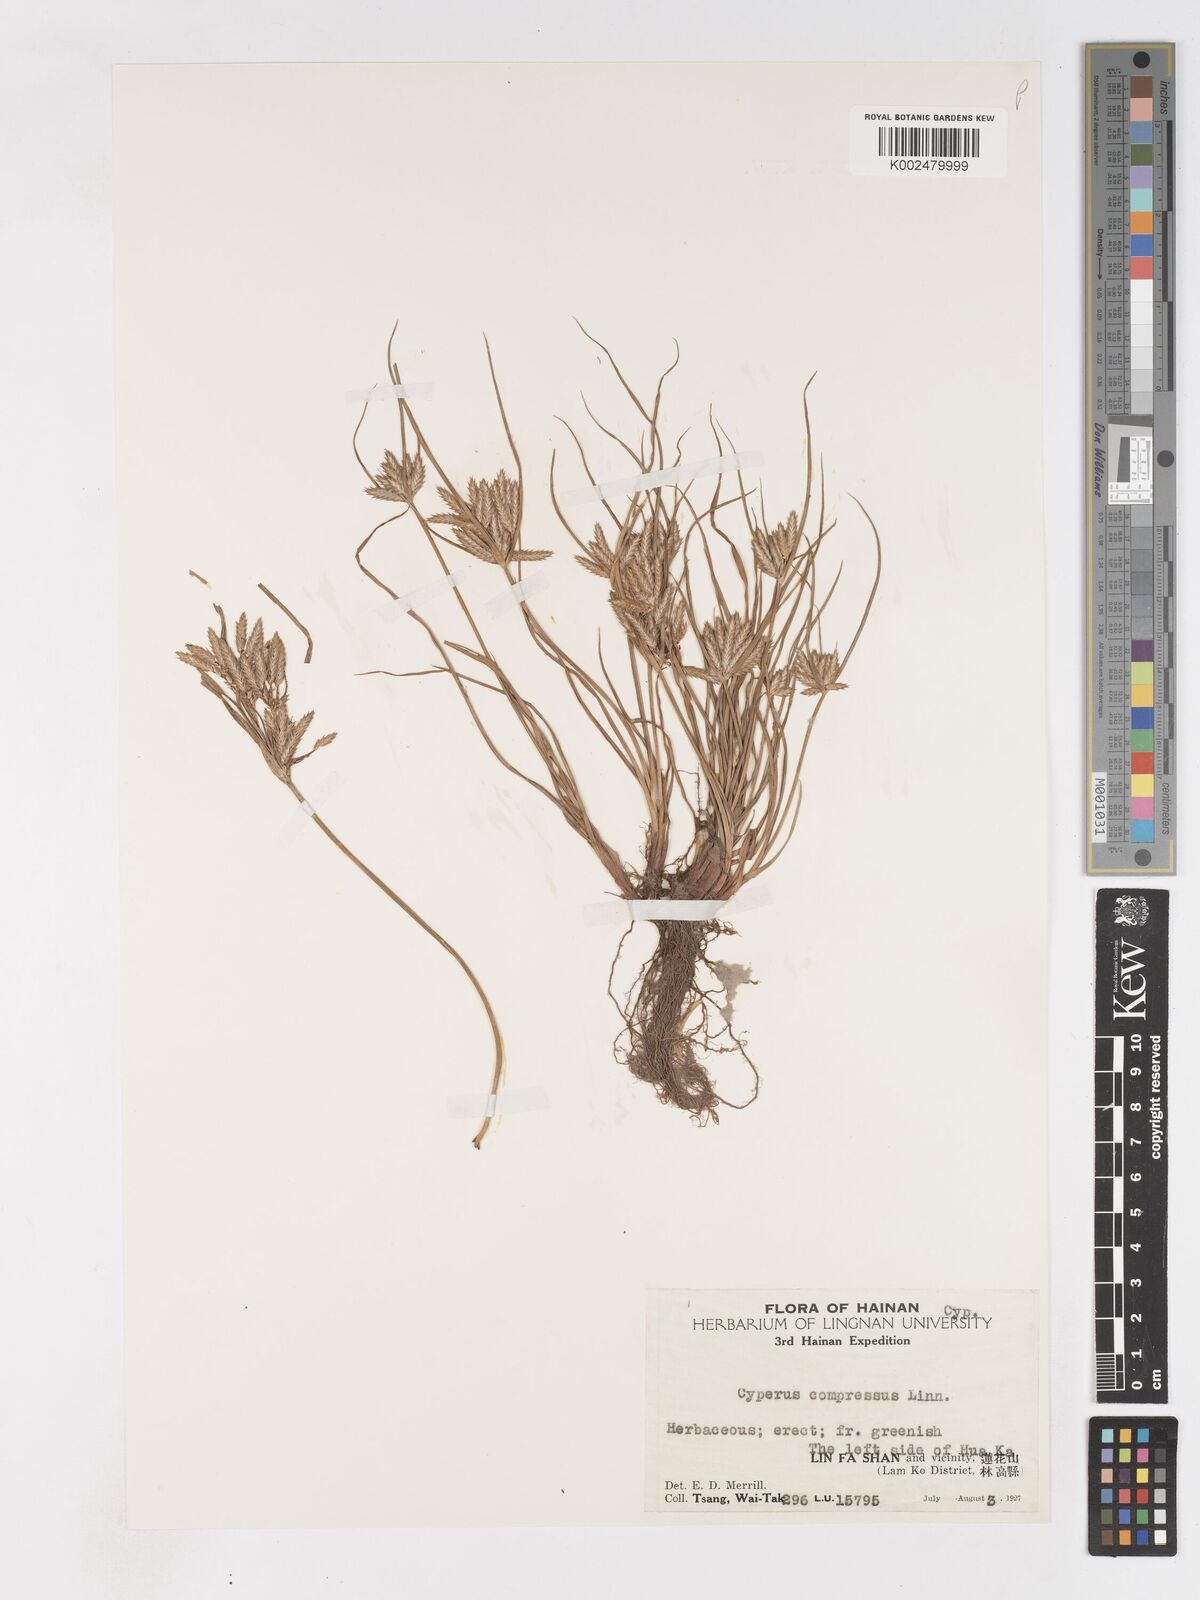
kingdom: Plantae
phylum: Tracheophyta
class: Liliopsida
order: Poales
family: Cyperaceae
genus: Cyperus
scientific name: Cyperus compressus
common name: Poorland flatsedge
